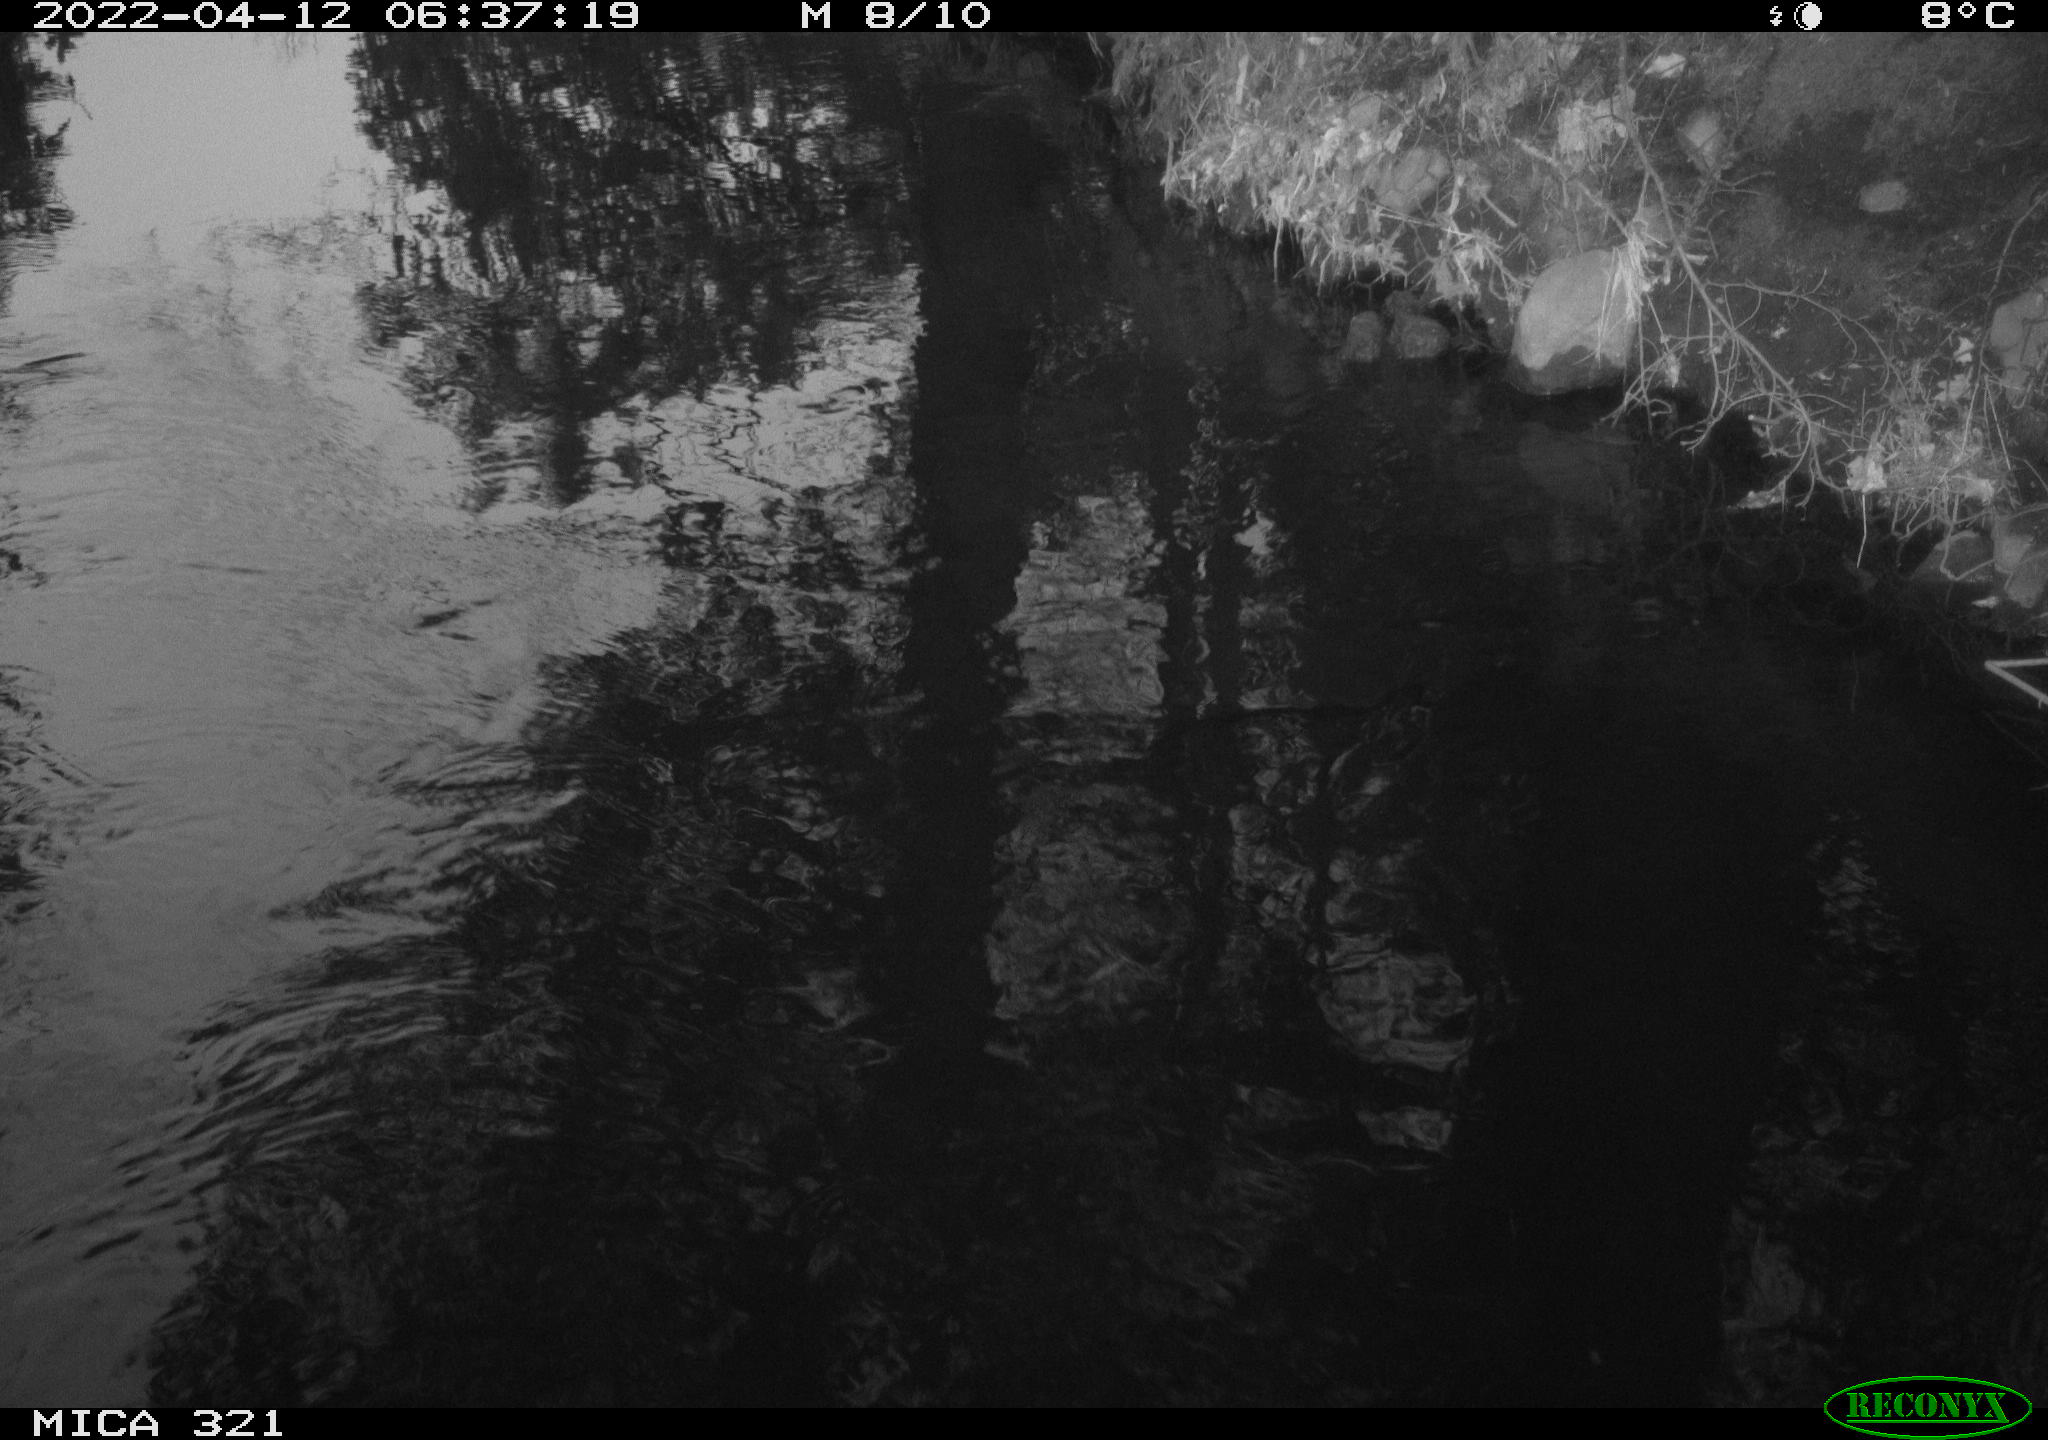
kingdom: Animalia
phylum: Chordata
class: Aves
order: Pelecaniformes
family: Ardeidae
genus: Ardea
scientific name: Ardea
